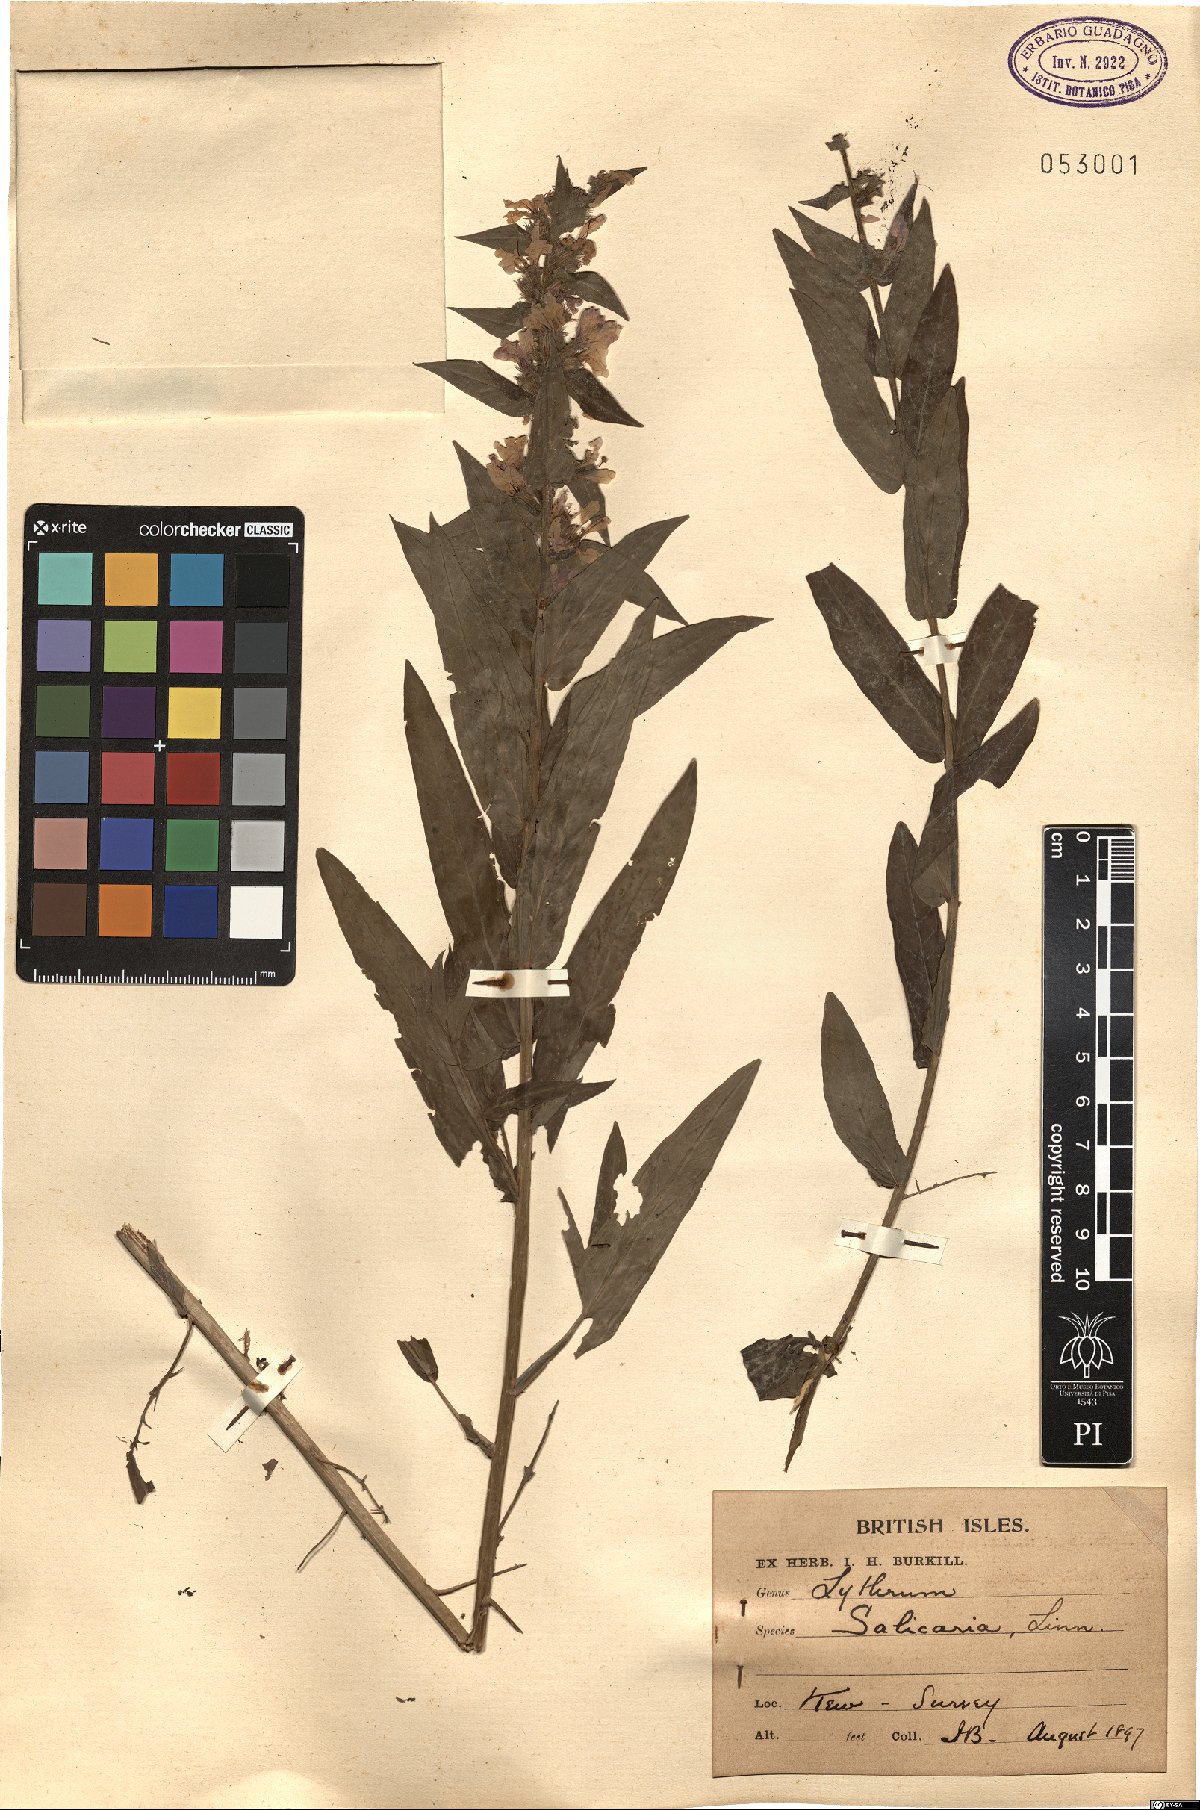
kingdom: Plantae
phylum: Tracheophyta
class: Magnoliopsida
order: Myrtales
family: Lythraceae
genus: Lythrum
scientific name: Lythrum salicaria
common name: Purple loosestrife
